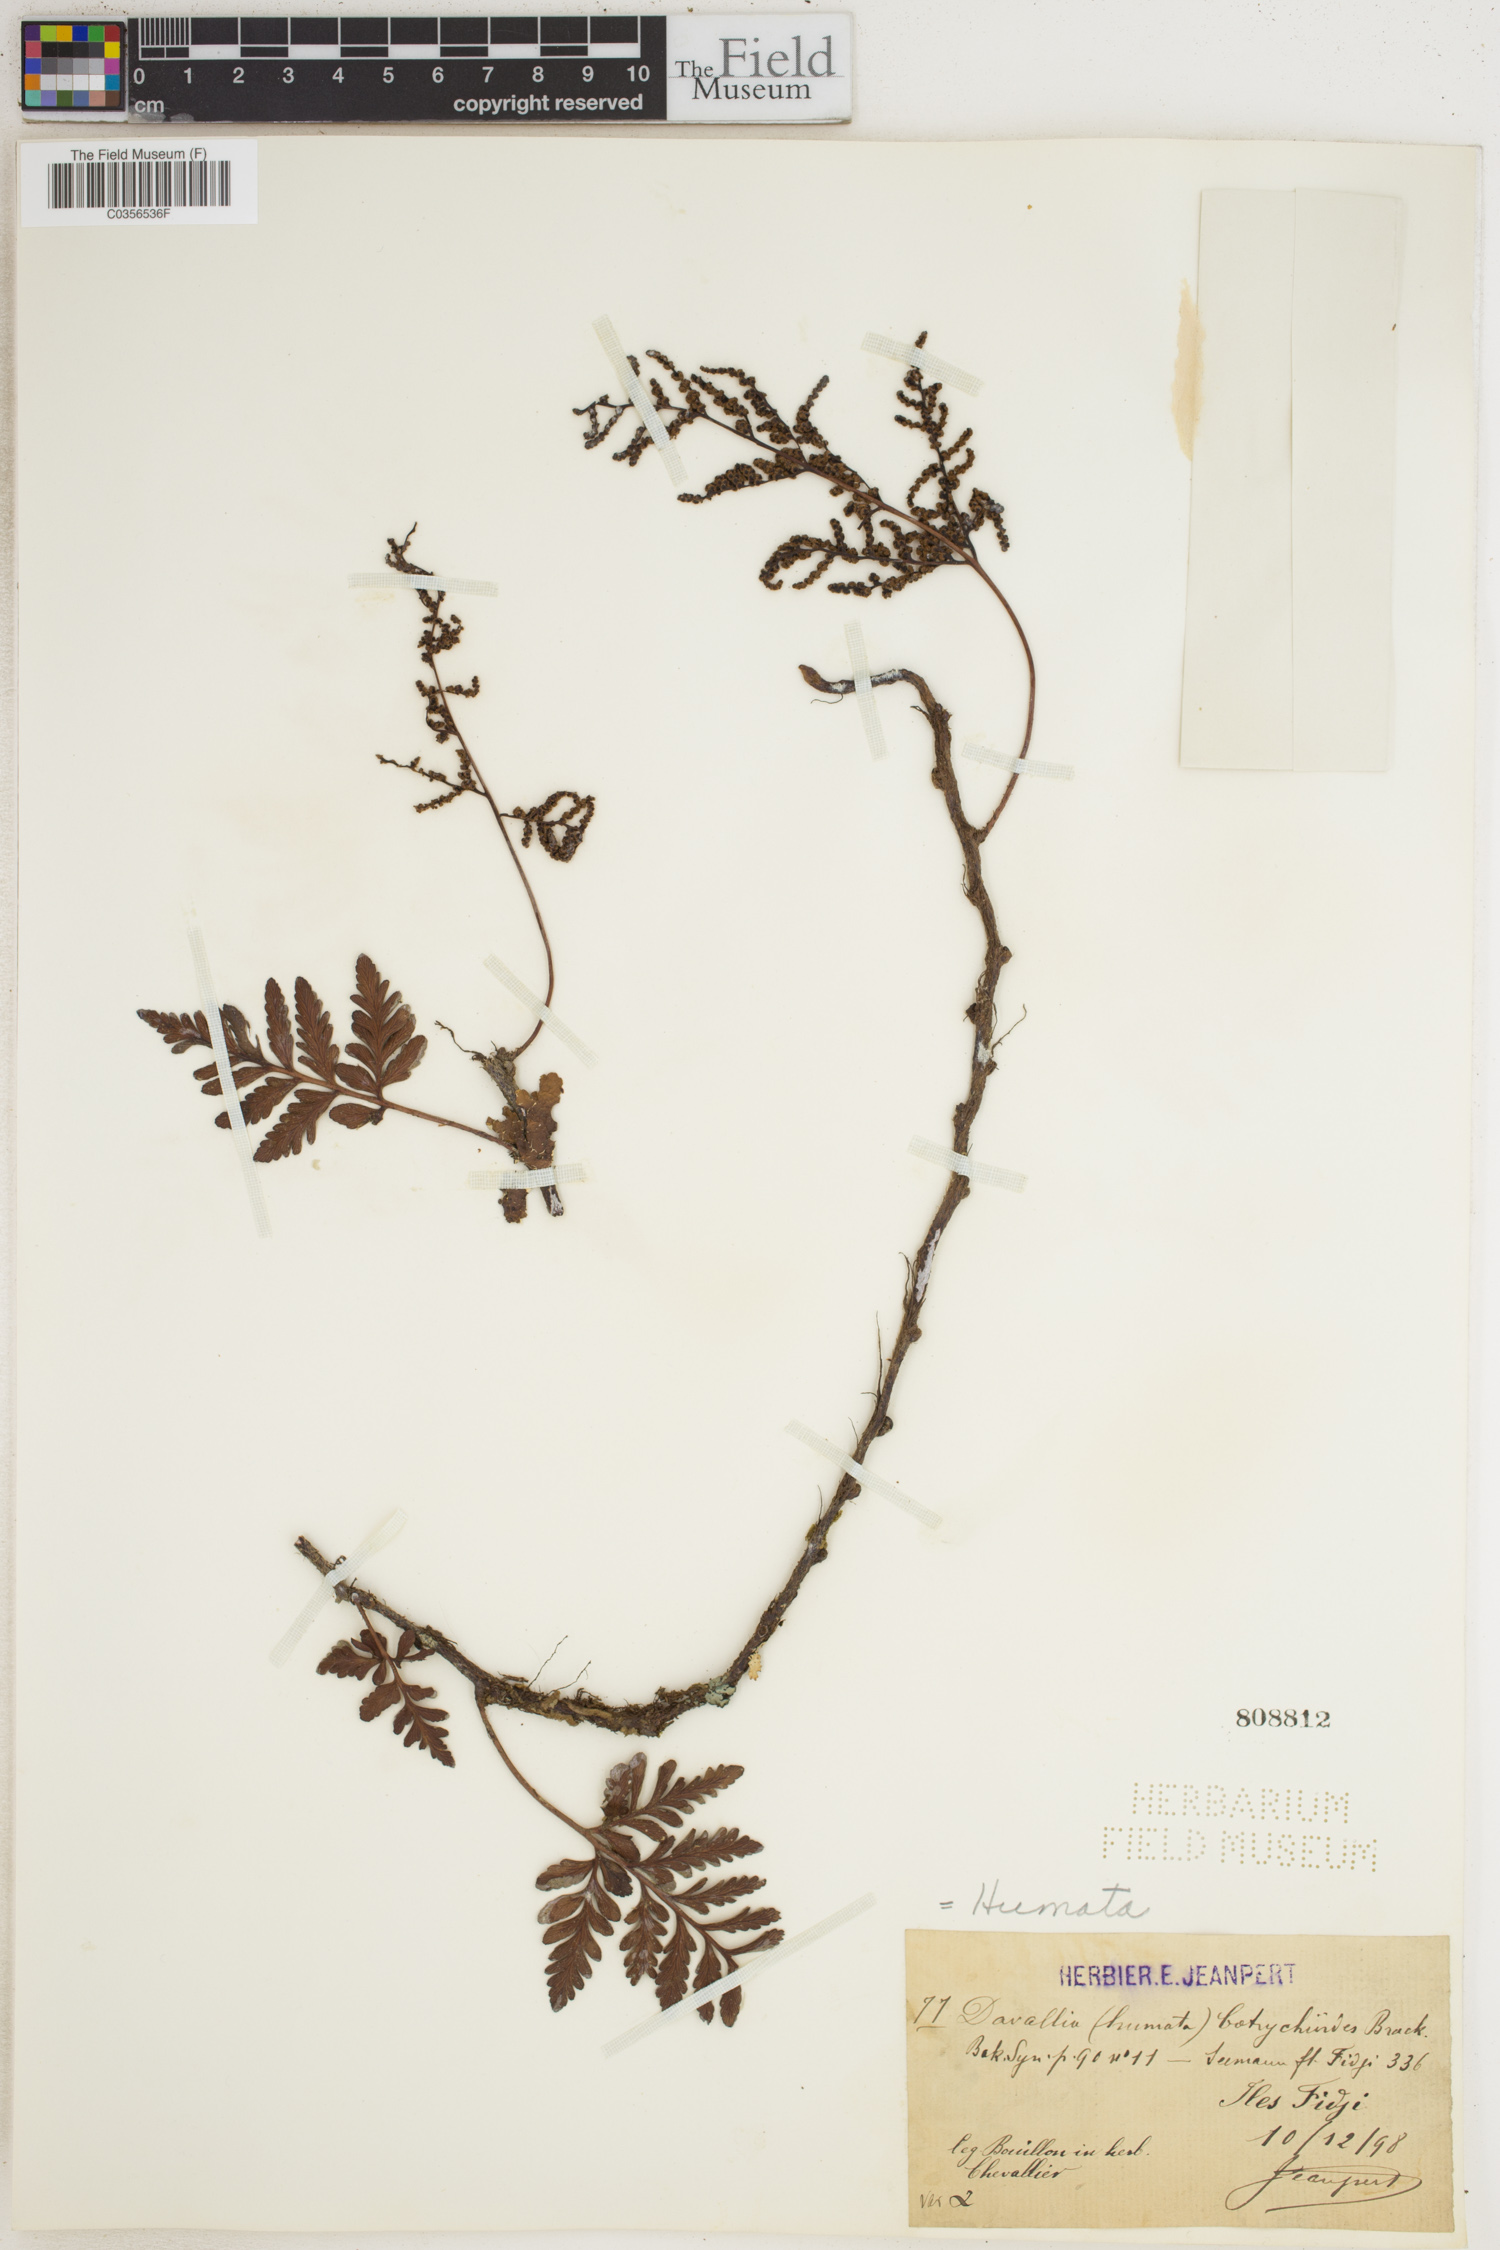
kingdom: Plantae
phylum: Tracheophyta
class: Polypodiopsida
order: Polypodiales
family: Davalliaceae
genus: Davallia
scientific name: Davallia
